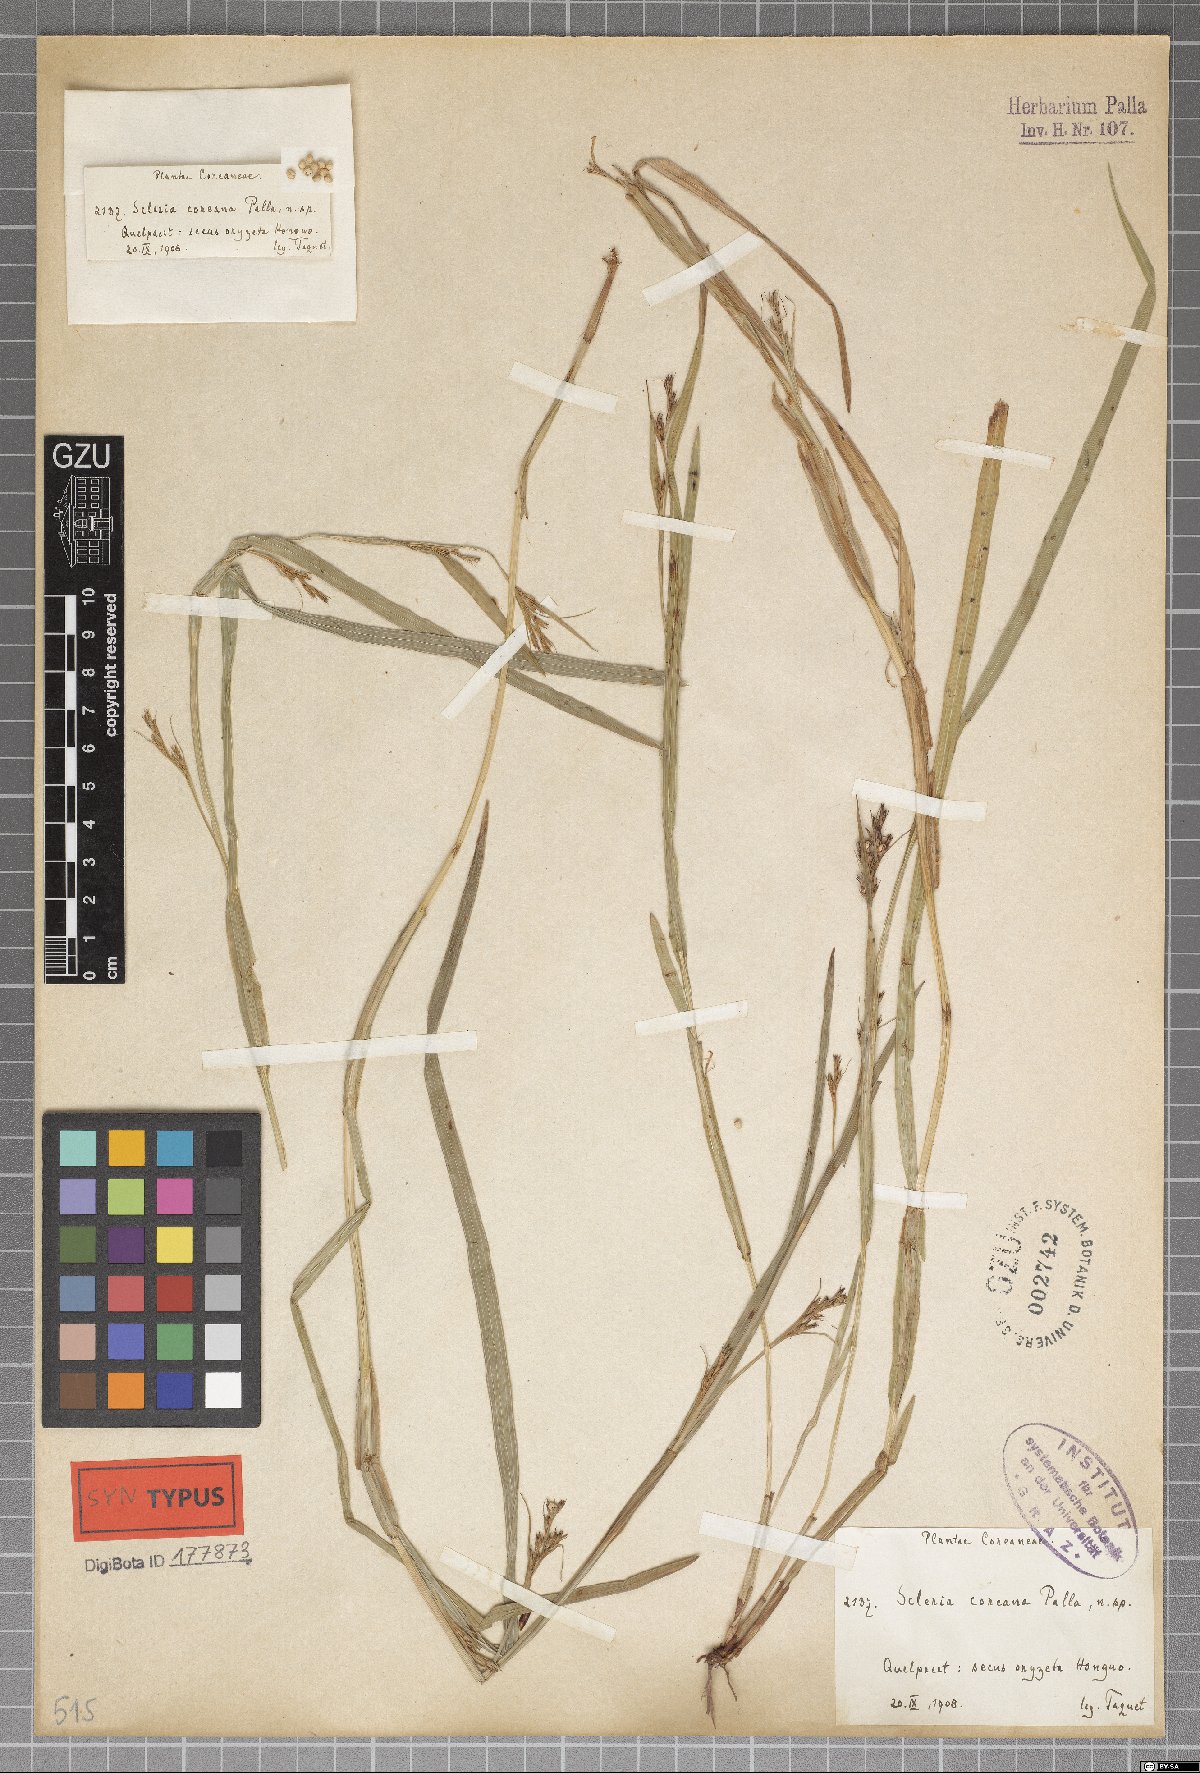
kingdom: Plantae
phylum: Tracheophyta
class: Liliopsida
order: Poales
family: Cyperaceae
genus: Scleria
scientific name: Scleria parvula
